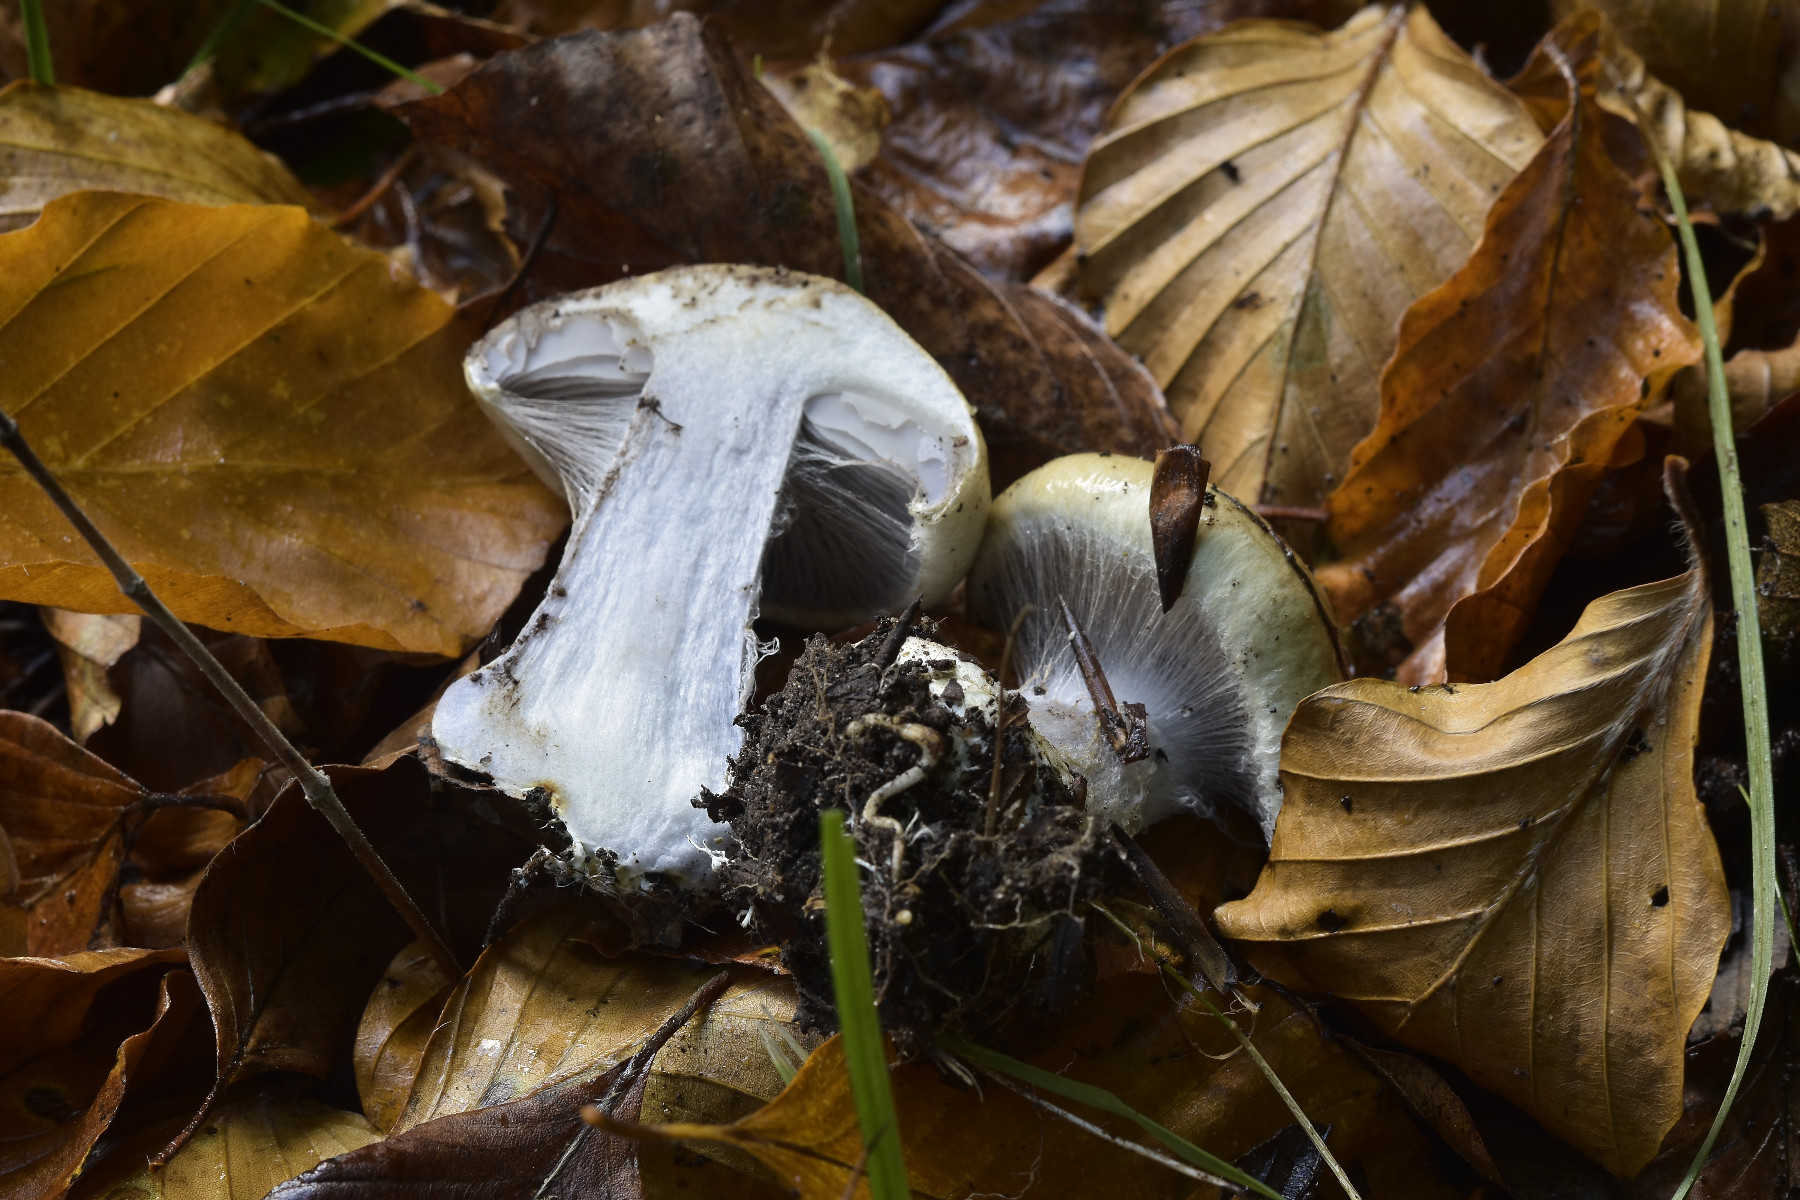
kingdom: Fungi
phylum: Basidiomycota
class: Agaricomycetes
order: Agaricales
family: Cortinariaceae
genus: Cortinarius
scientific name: Cortinarius anserinus
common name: bøge-slørhat
